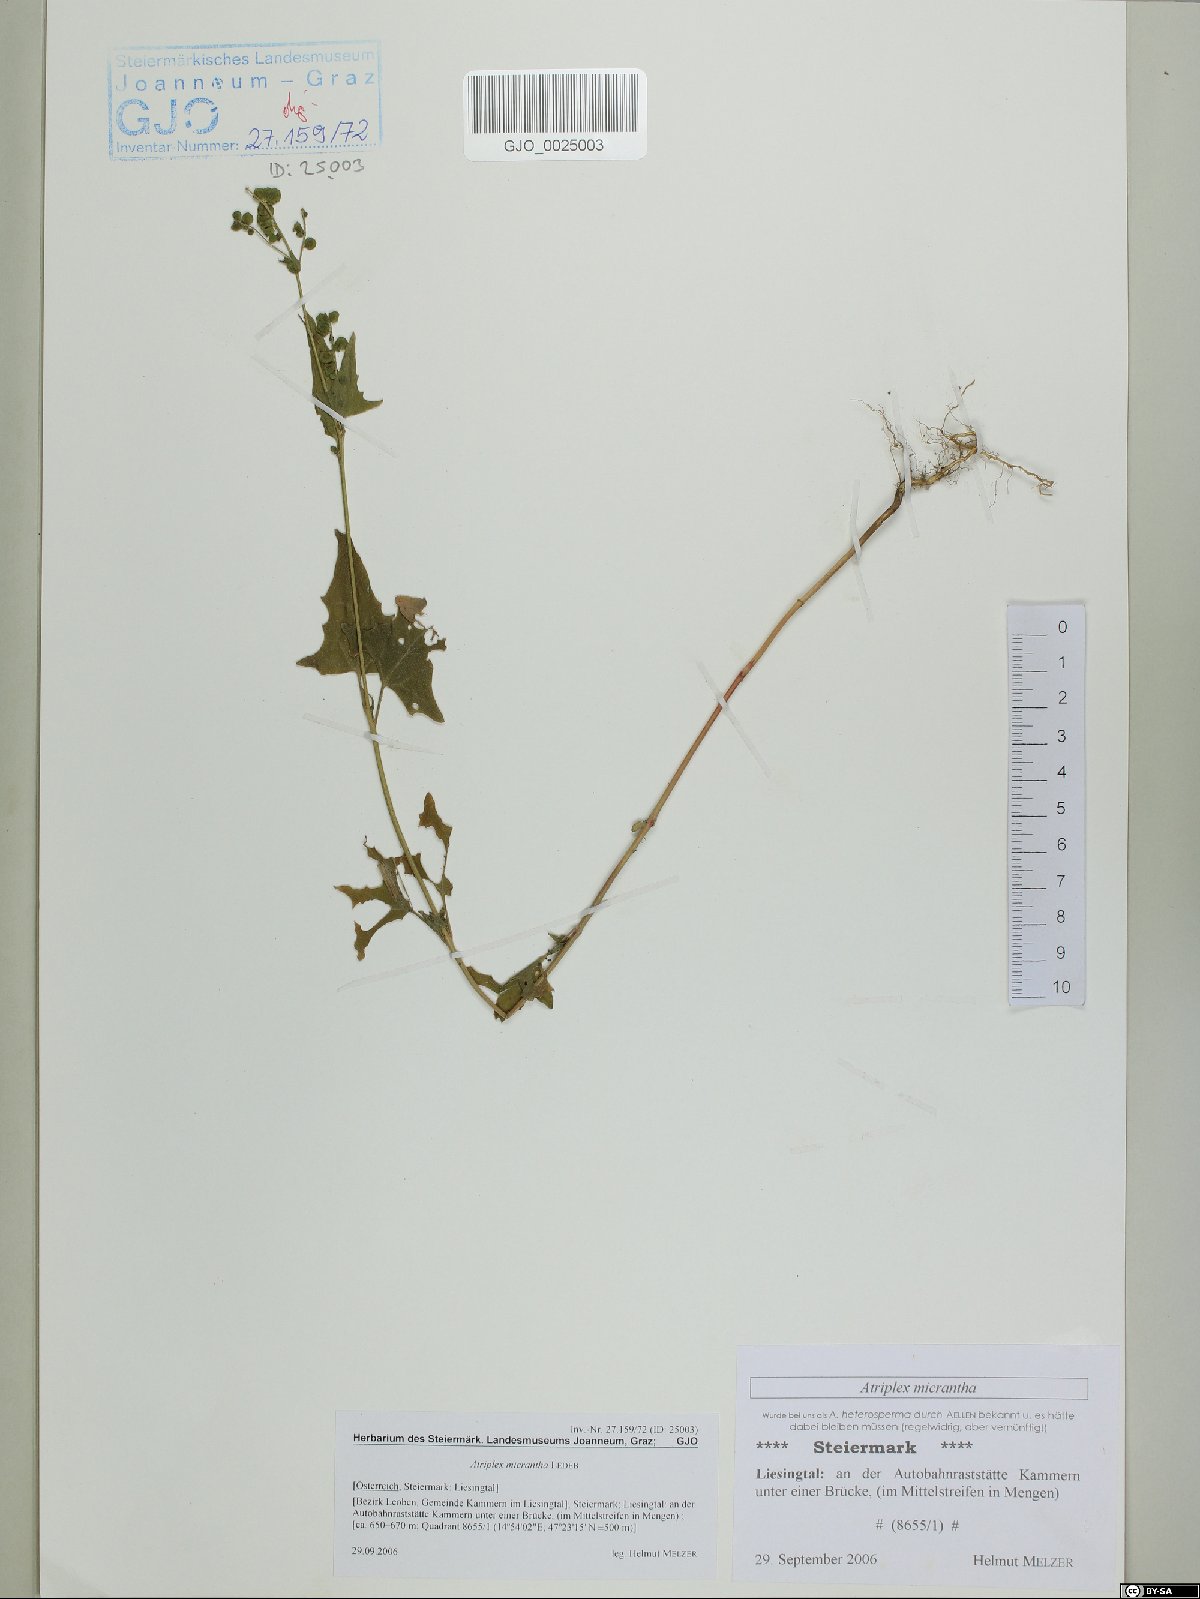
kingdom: Plantae
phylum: Tracheophyta
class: Magnoliopsida
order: Caryophyllales
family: Amaranthaceae
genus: Atriplex
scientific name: Atriplex micrantha
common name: Twoscale saltbush
